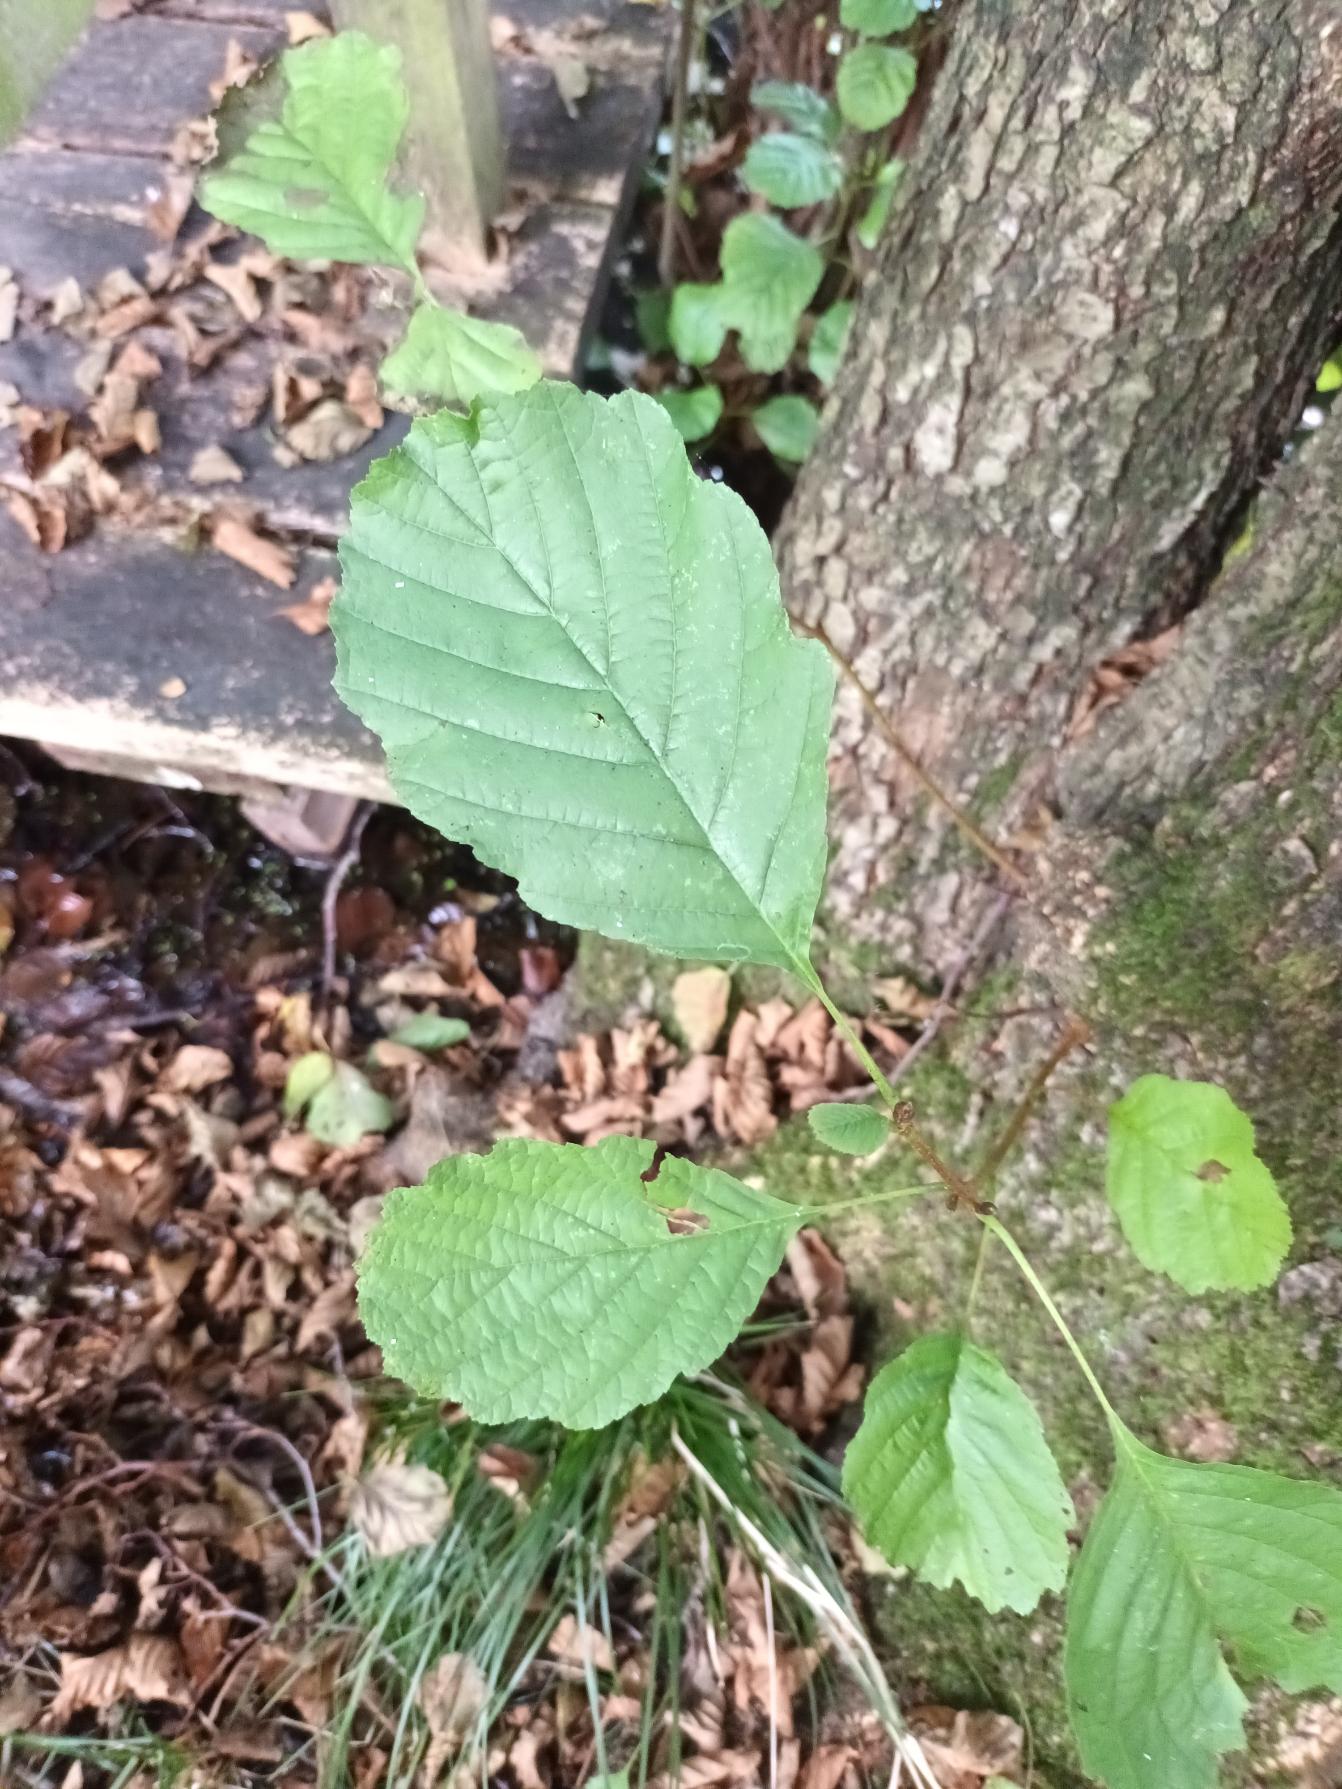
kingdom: Plantae
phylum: Tracheophyta
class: Magnoliopsida
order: Fagales
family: Betulaceae
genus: Alnus
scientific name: Alnus glutinosa
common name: Rød-el
